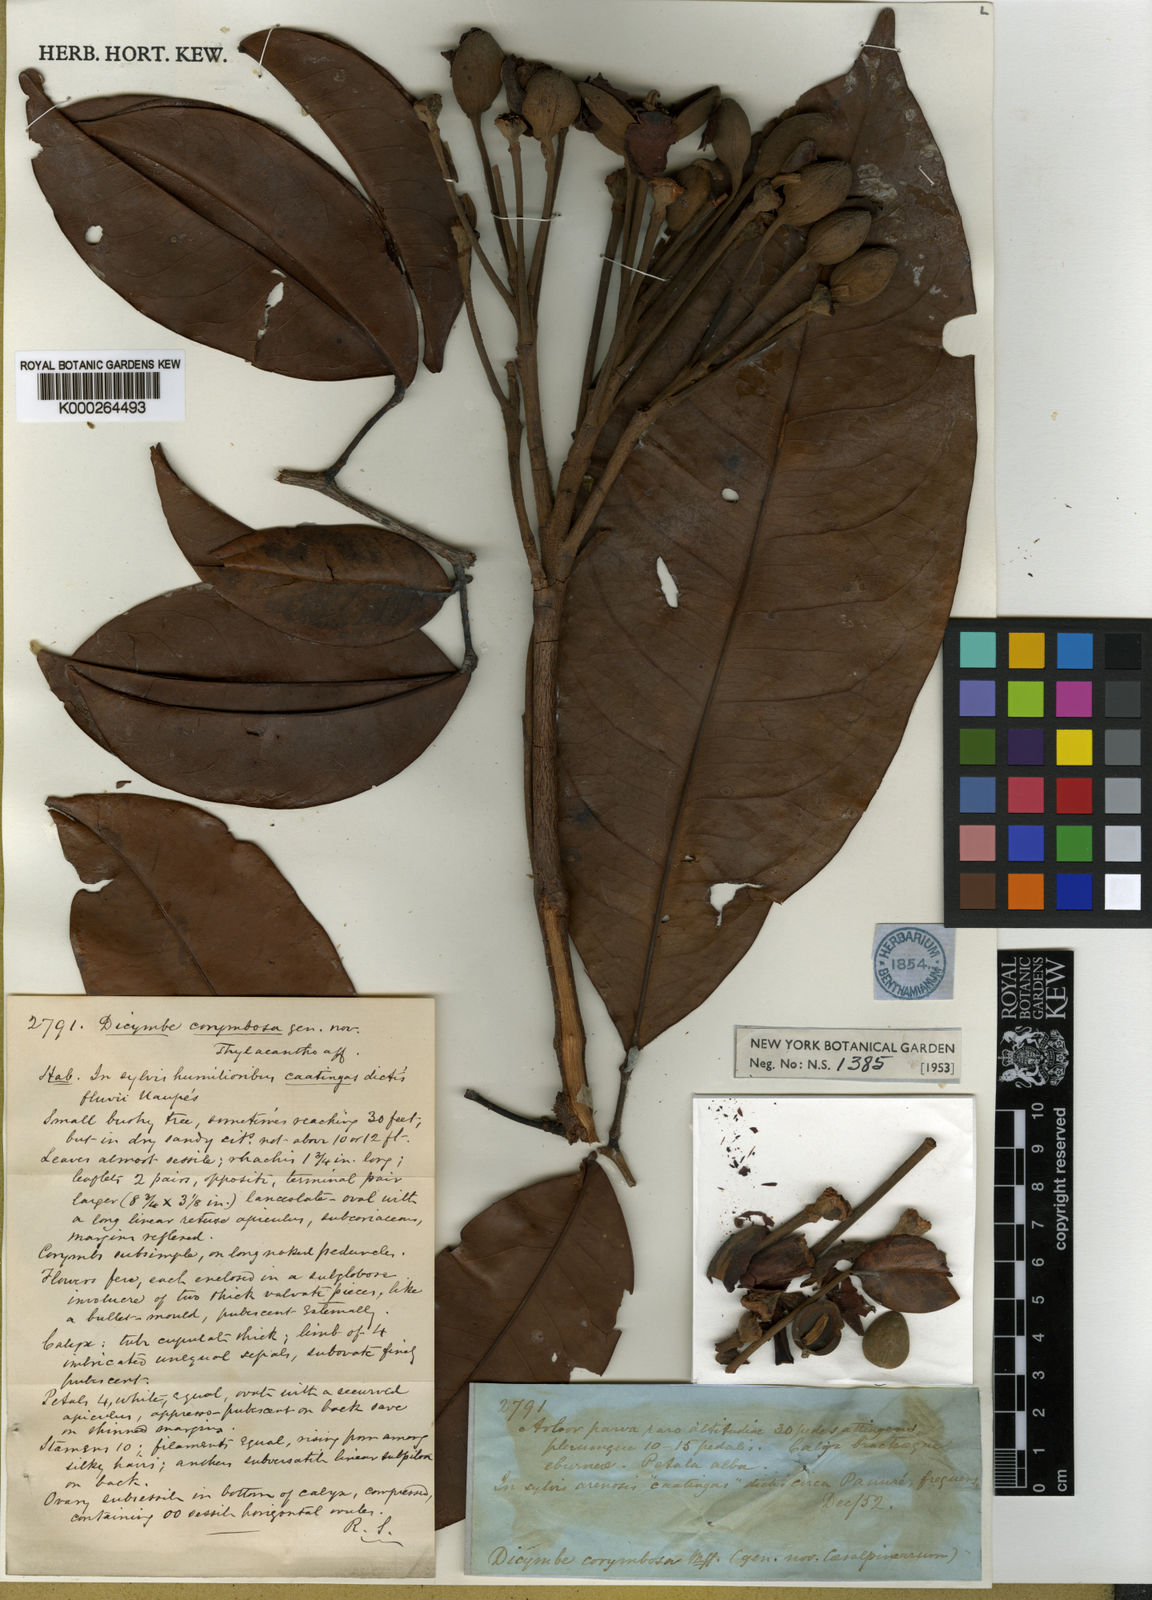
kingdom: Plantae
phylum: Tracheophyta
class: Magnoliopsida
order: Fabales
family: Fabaceae
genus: Dicymbe
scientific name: Dicymbe corymbosa
